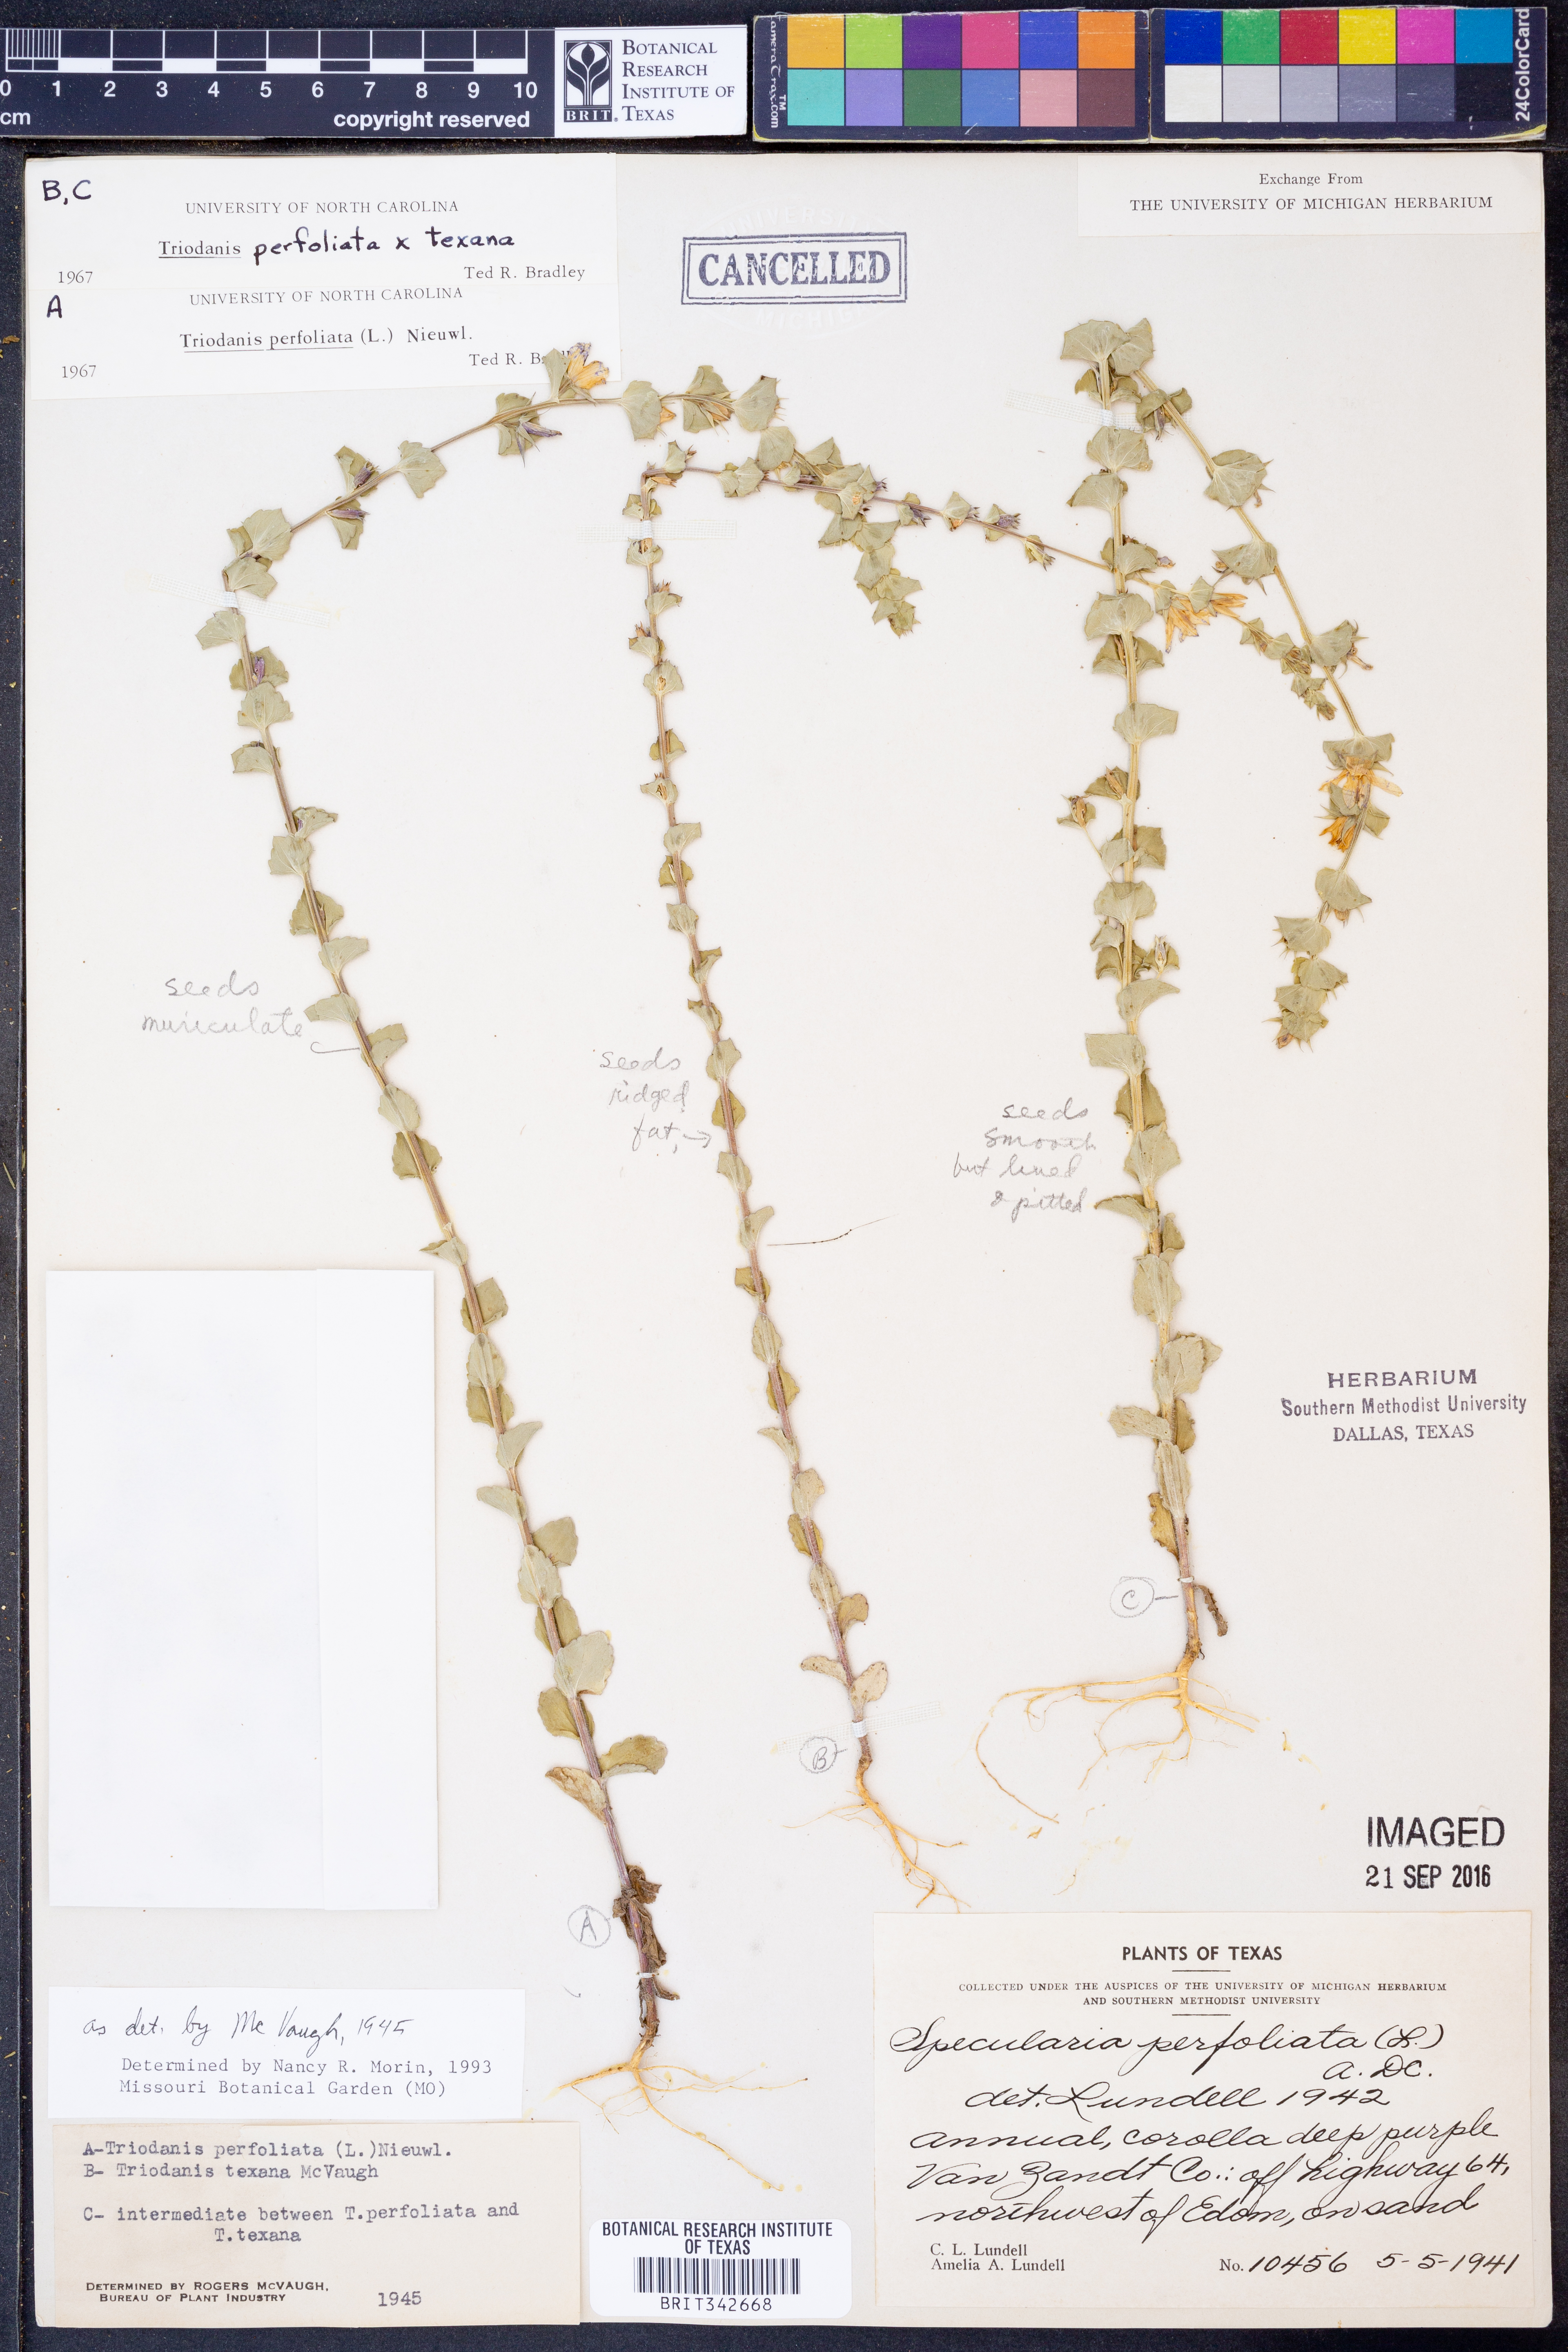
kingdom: Plantae
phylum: Tracheophyta
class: Magnoliopsida
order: Asterales
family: Campanulaceae
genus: Triodanis
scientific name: Triodanis perfoliata
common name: Clasping venus' looking-glass
